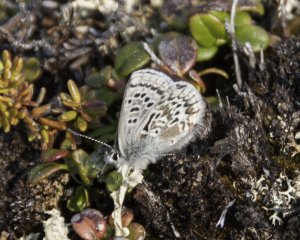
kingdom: Animalia
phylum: Arthropoda
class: Insecta
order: Lepidoptera
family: Lycaenidae
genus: Agriades
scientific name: Agriades glandon
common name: Arctic Blue
